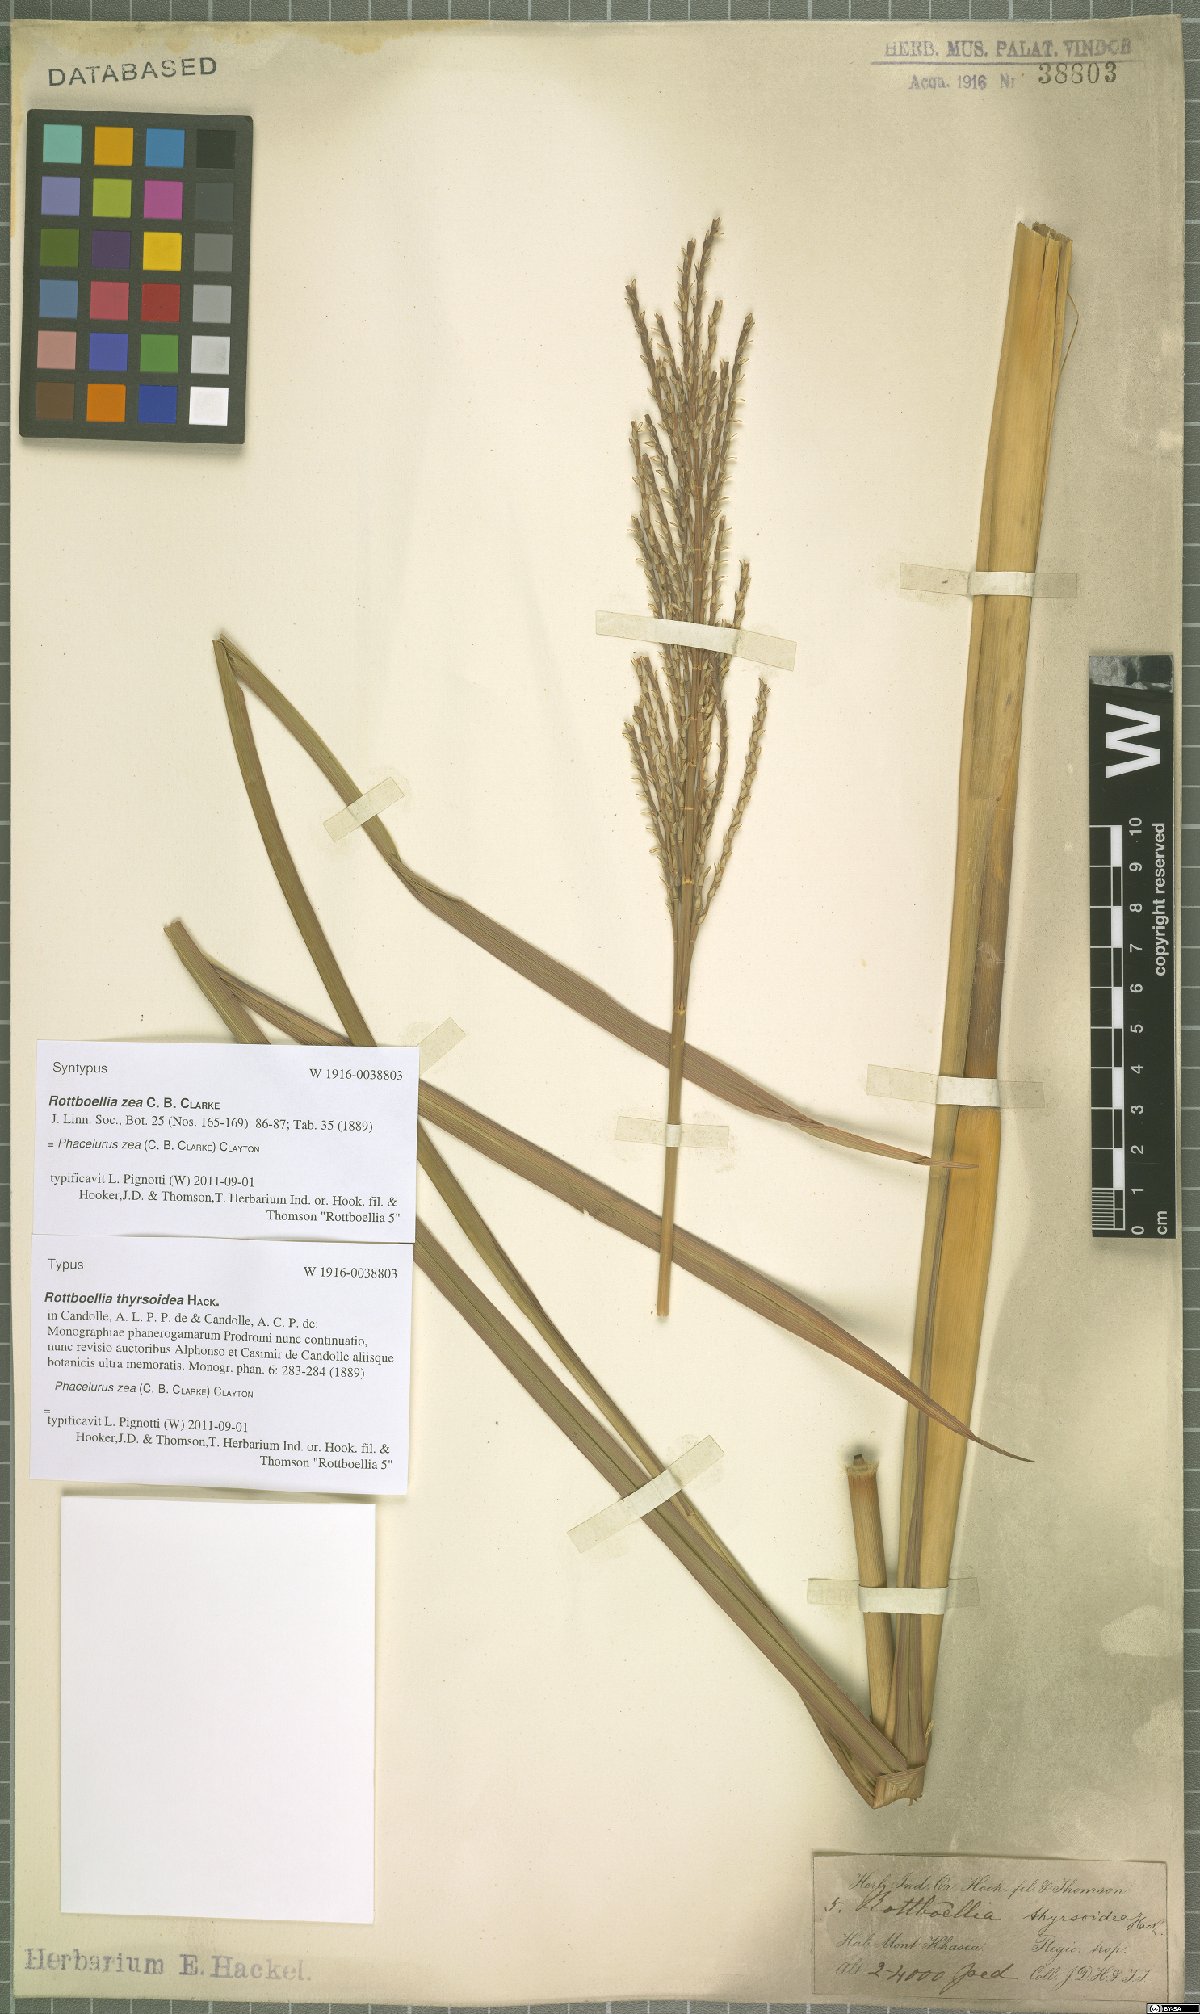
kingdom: Plantae
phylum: Tracheophyta
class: Liliopsida
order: Poales
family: Poaceae
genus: Thyrsia
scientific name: Thyrsia zea
